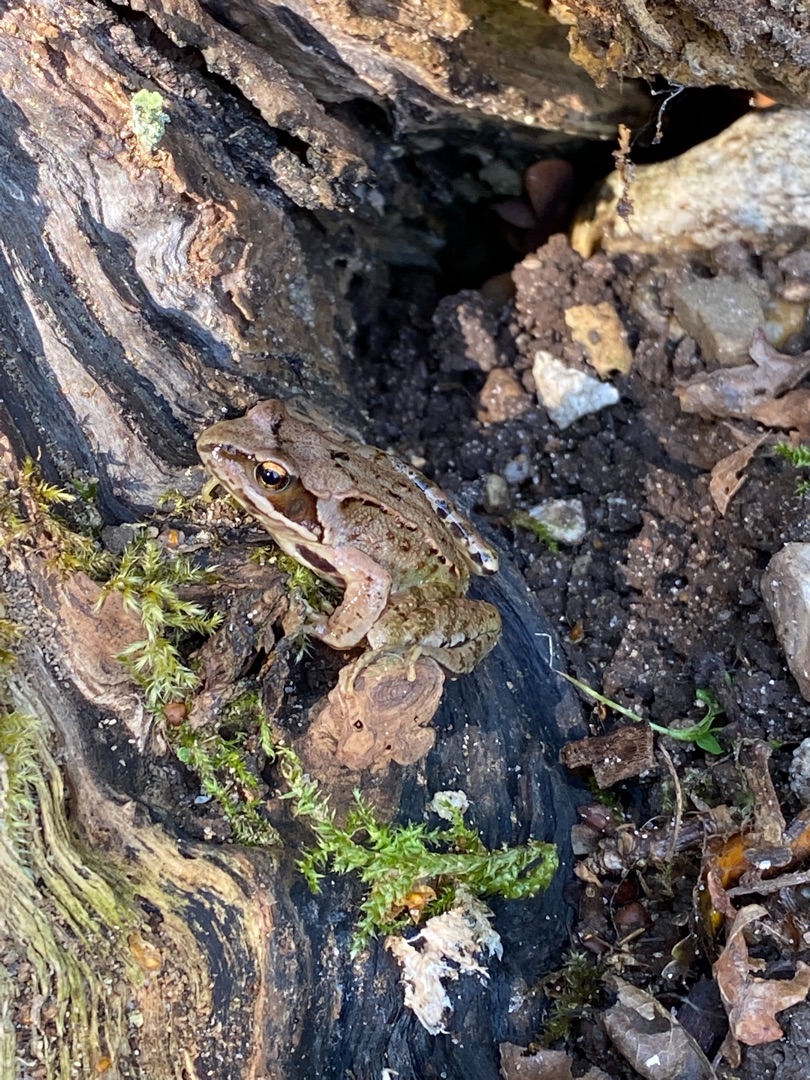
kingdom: Animalia
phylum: Chordata
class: Amphibia
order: Anura
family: Ranidae
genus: Rana
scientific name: Rana temporaria
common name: Butsnudet frø
